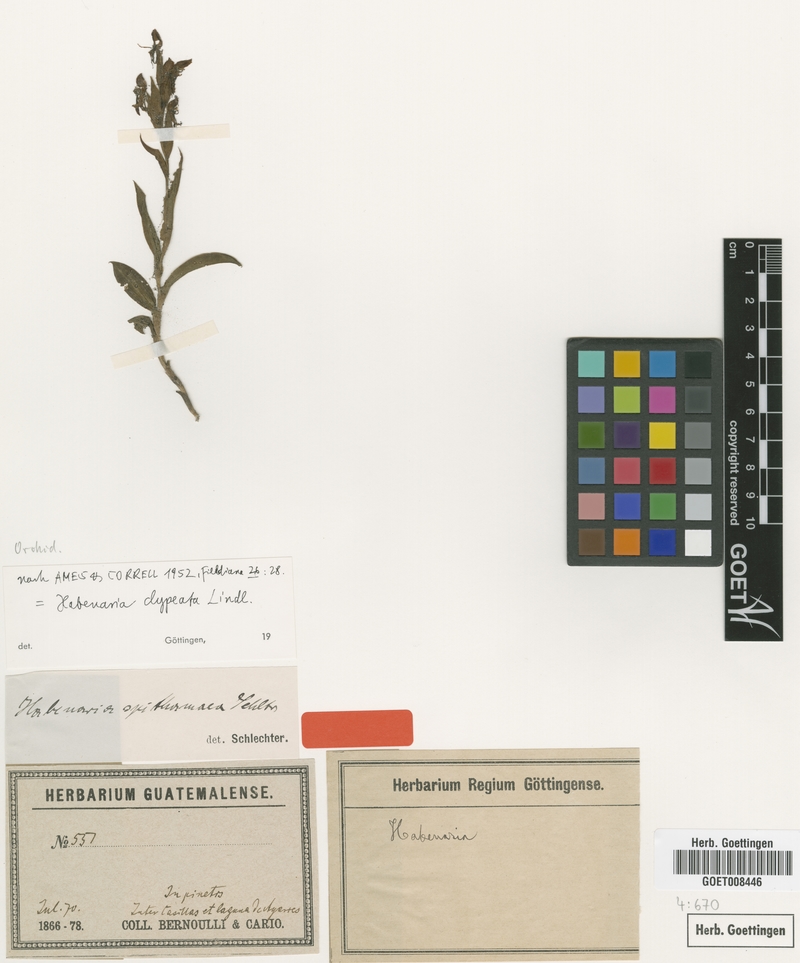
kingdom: Plantae
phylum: Tracheophyta
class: Liliopsida
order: Asparagales
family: Orchidaceae
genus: Habenaria
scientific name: Habenaria clypeata
